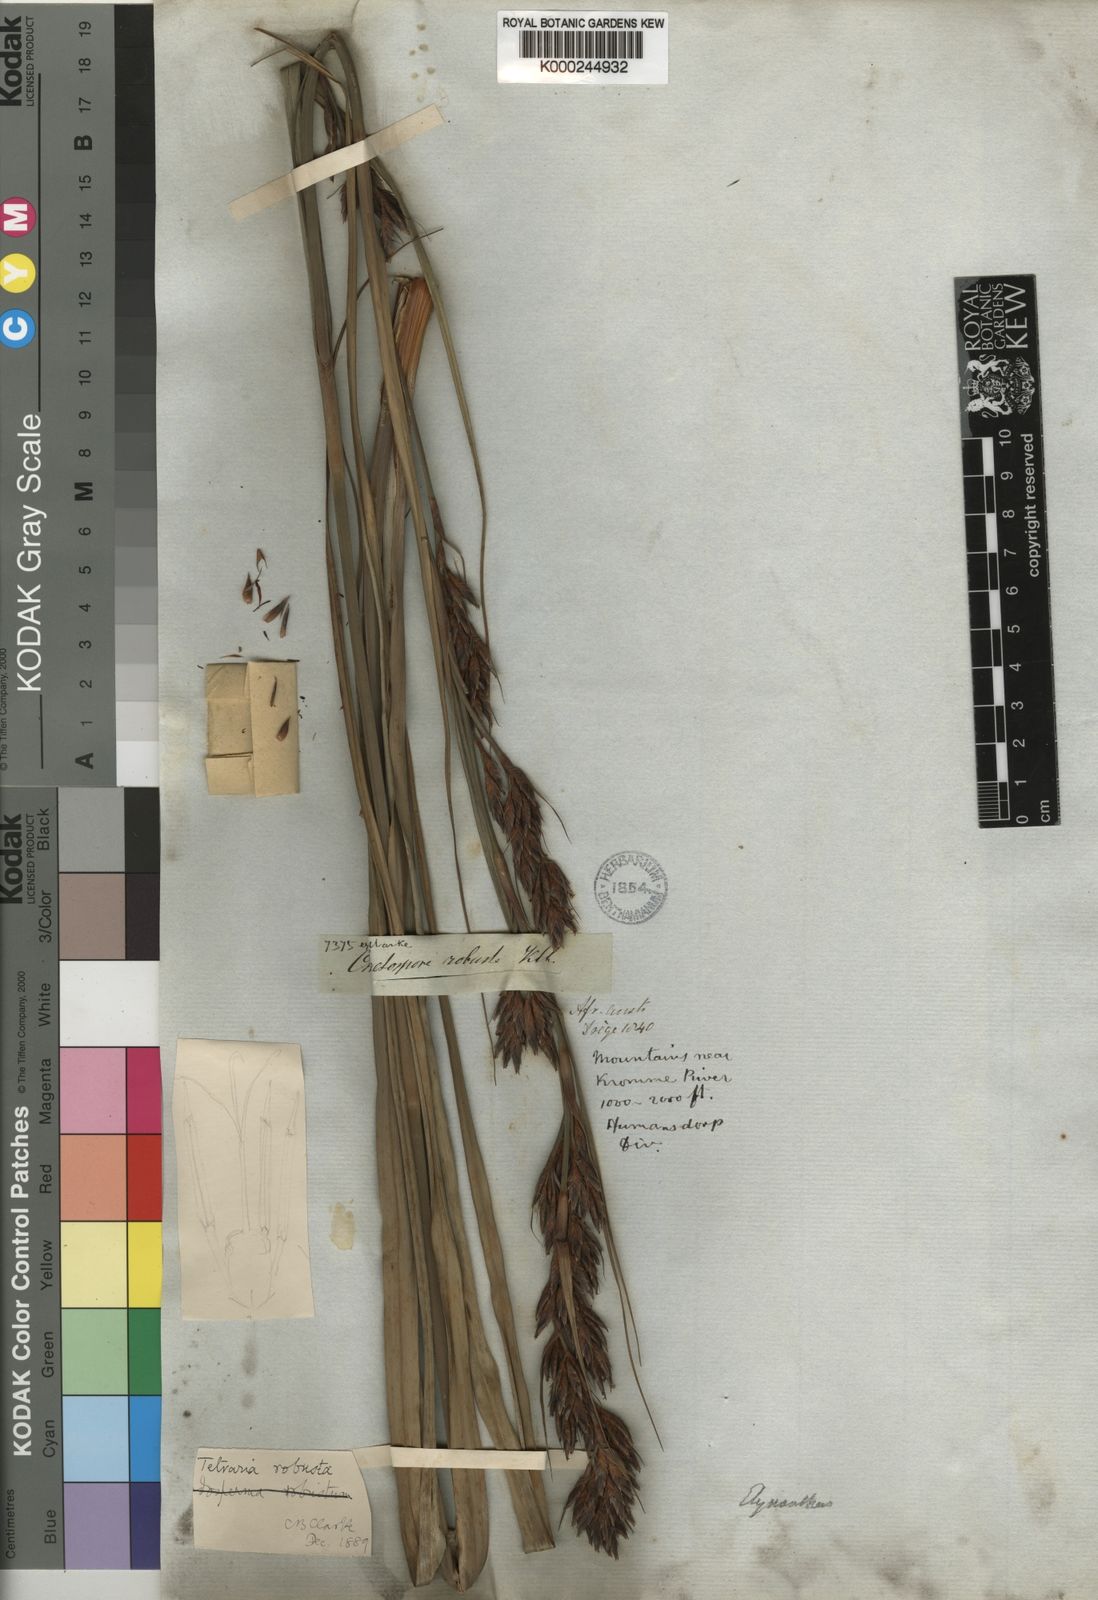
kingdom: Plantae
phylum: Tracheophyta
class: Liliopsida
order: Poales
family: Cyperaceae
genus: Tetraria
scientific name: Tetraria robusta
